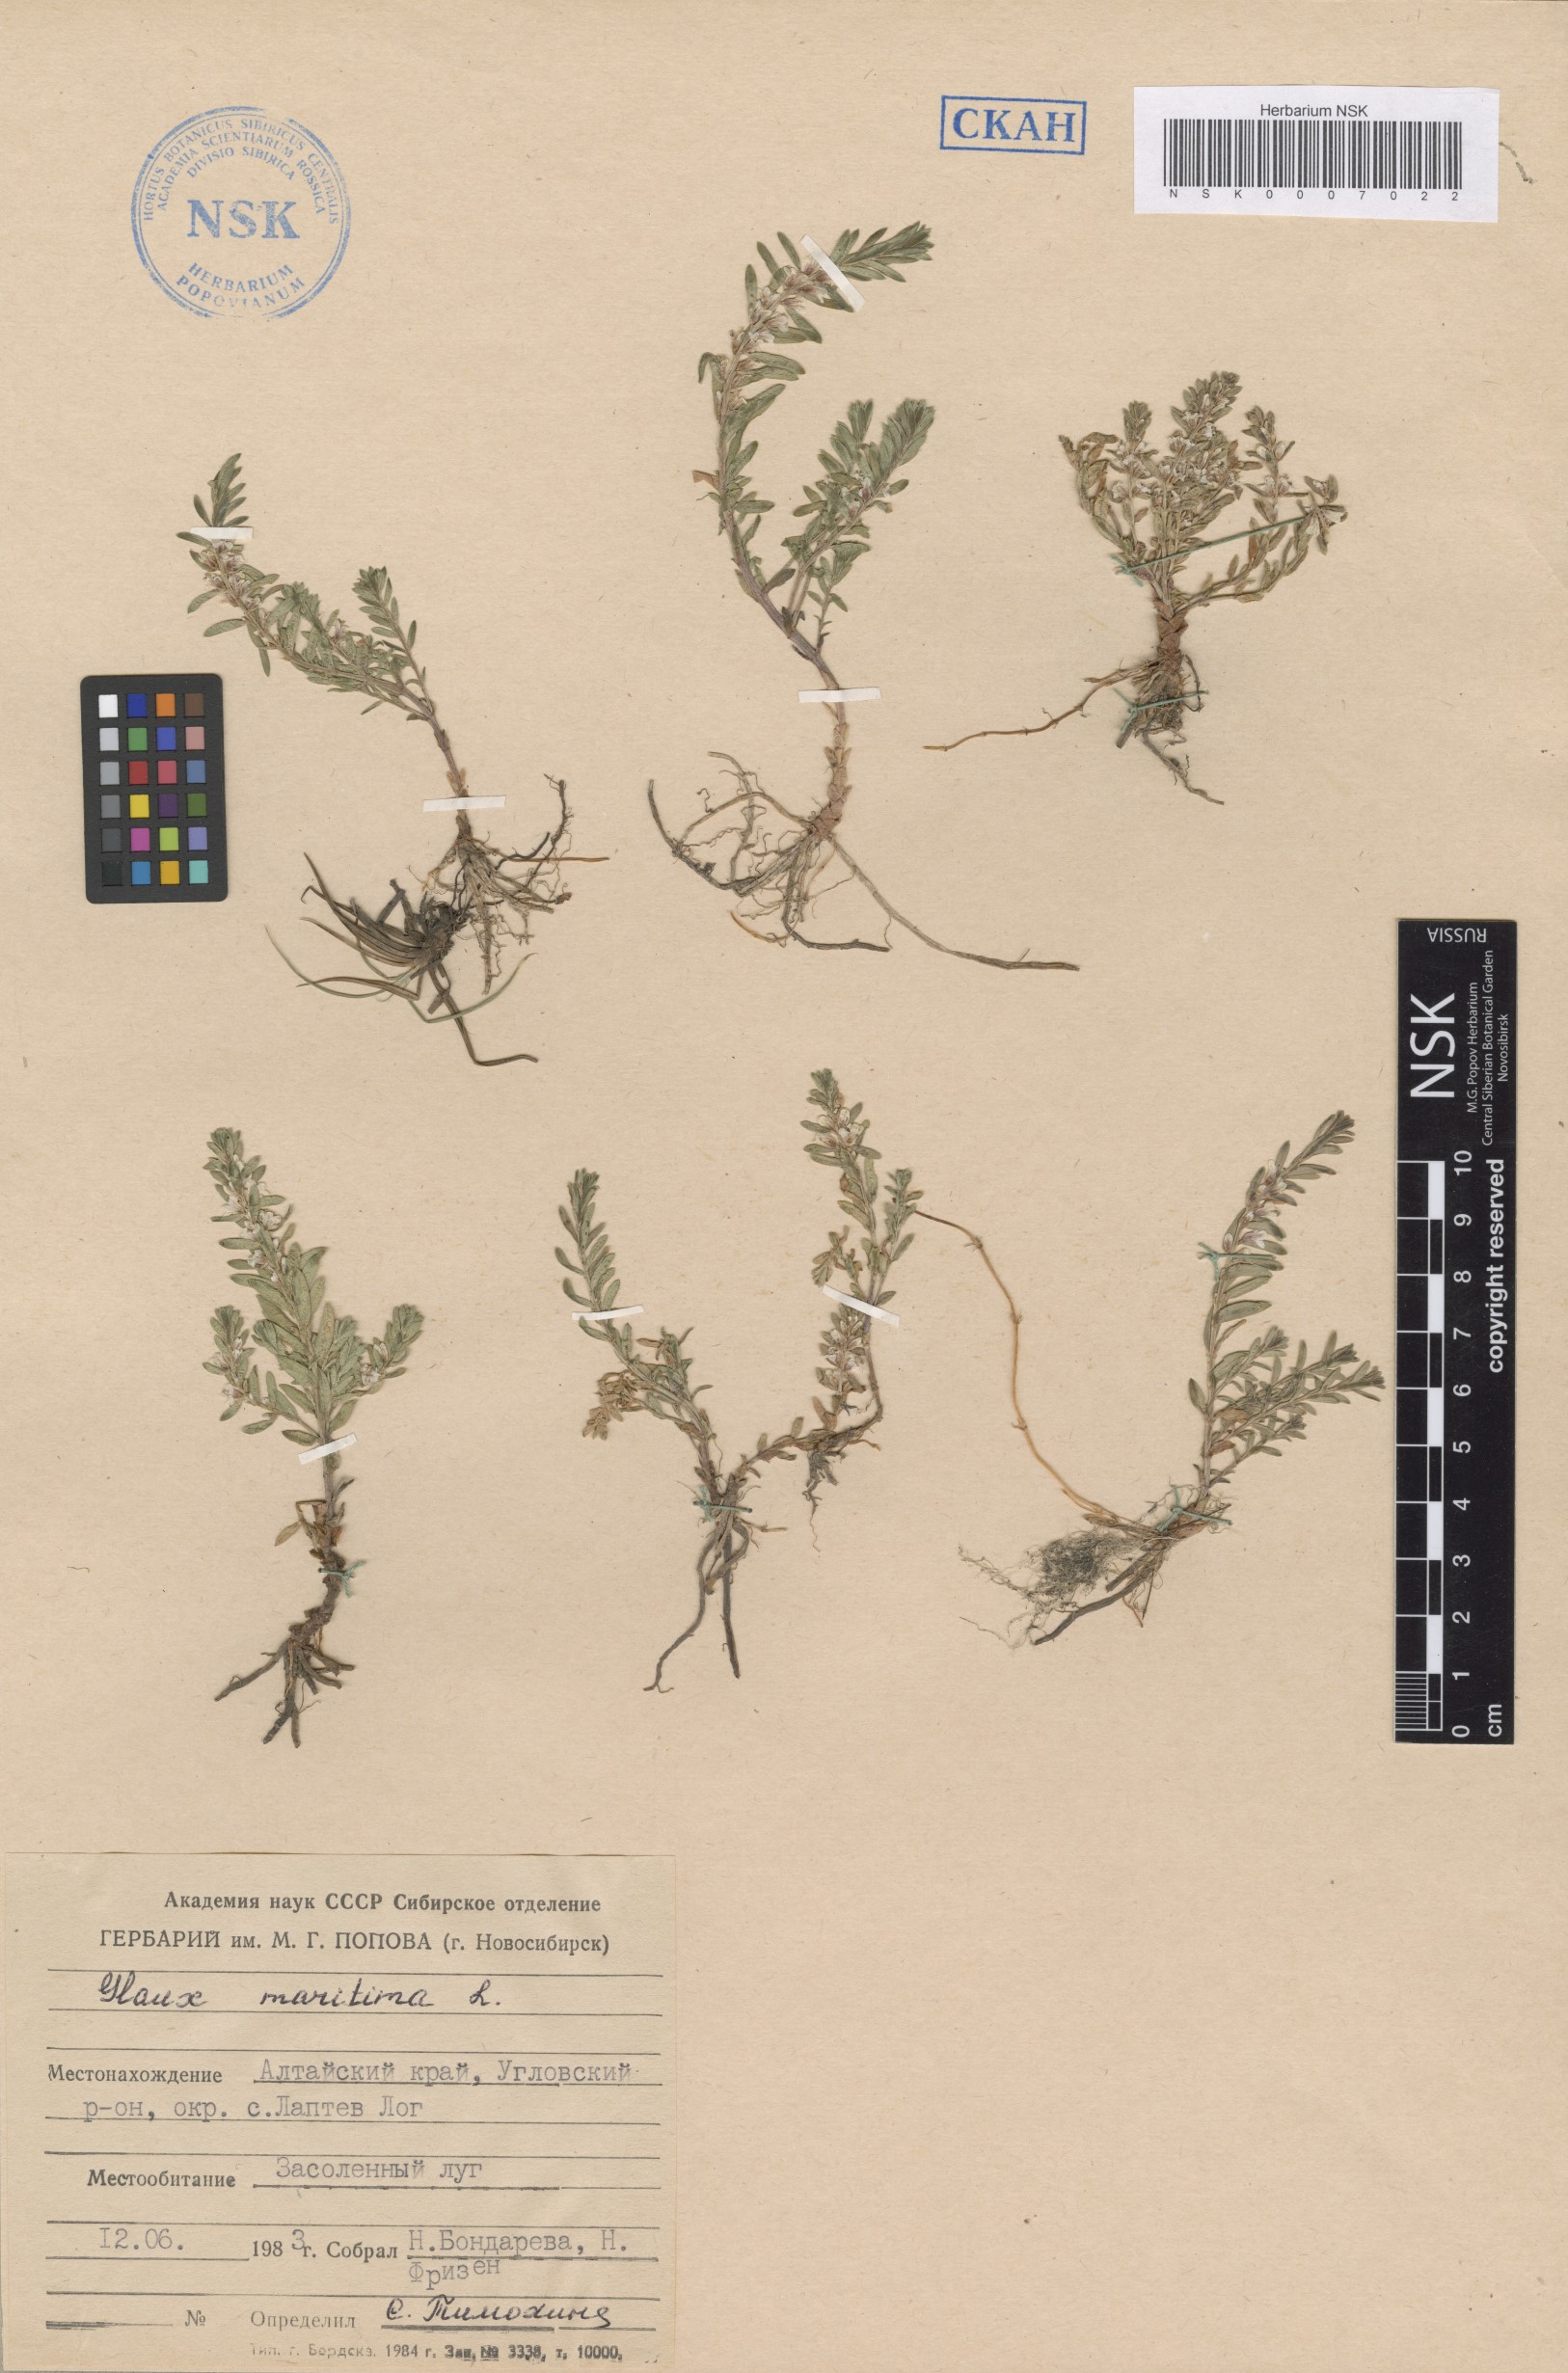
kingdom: Plantae
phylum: Tracheophyta
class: Magnoliopsida
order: Ericales
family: Primulaceae
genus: Lysimachia
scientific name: Lysimachia maritima
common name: Sea milkwort
